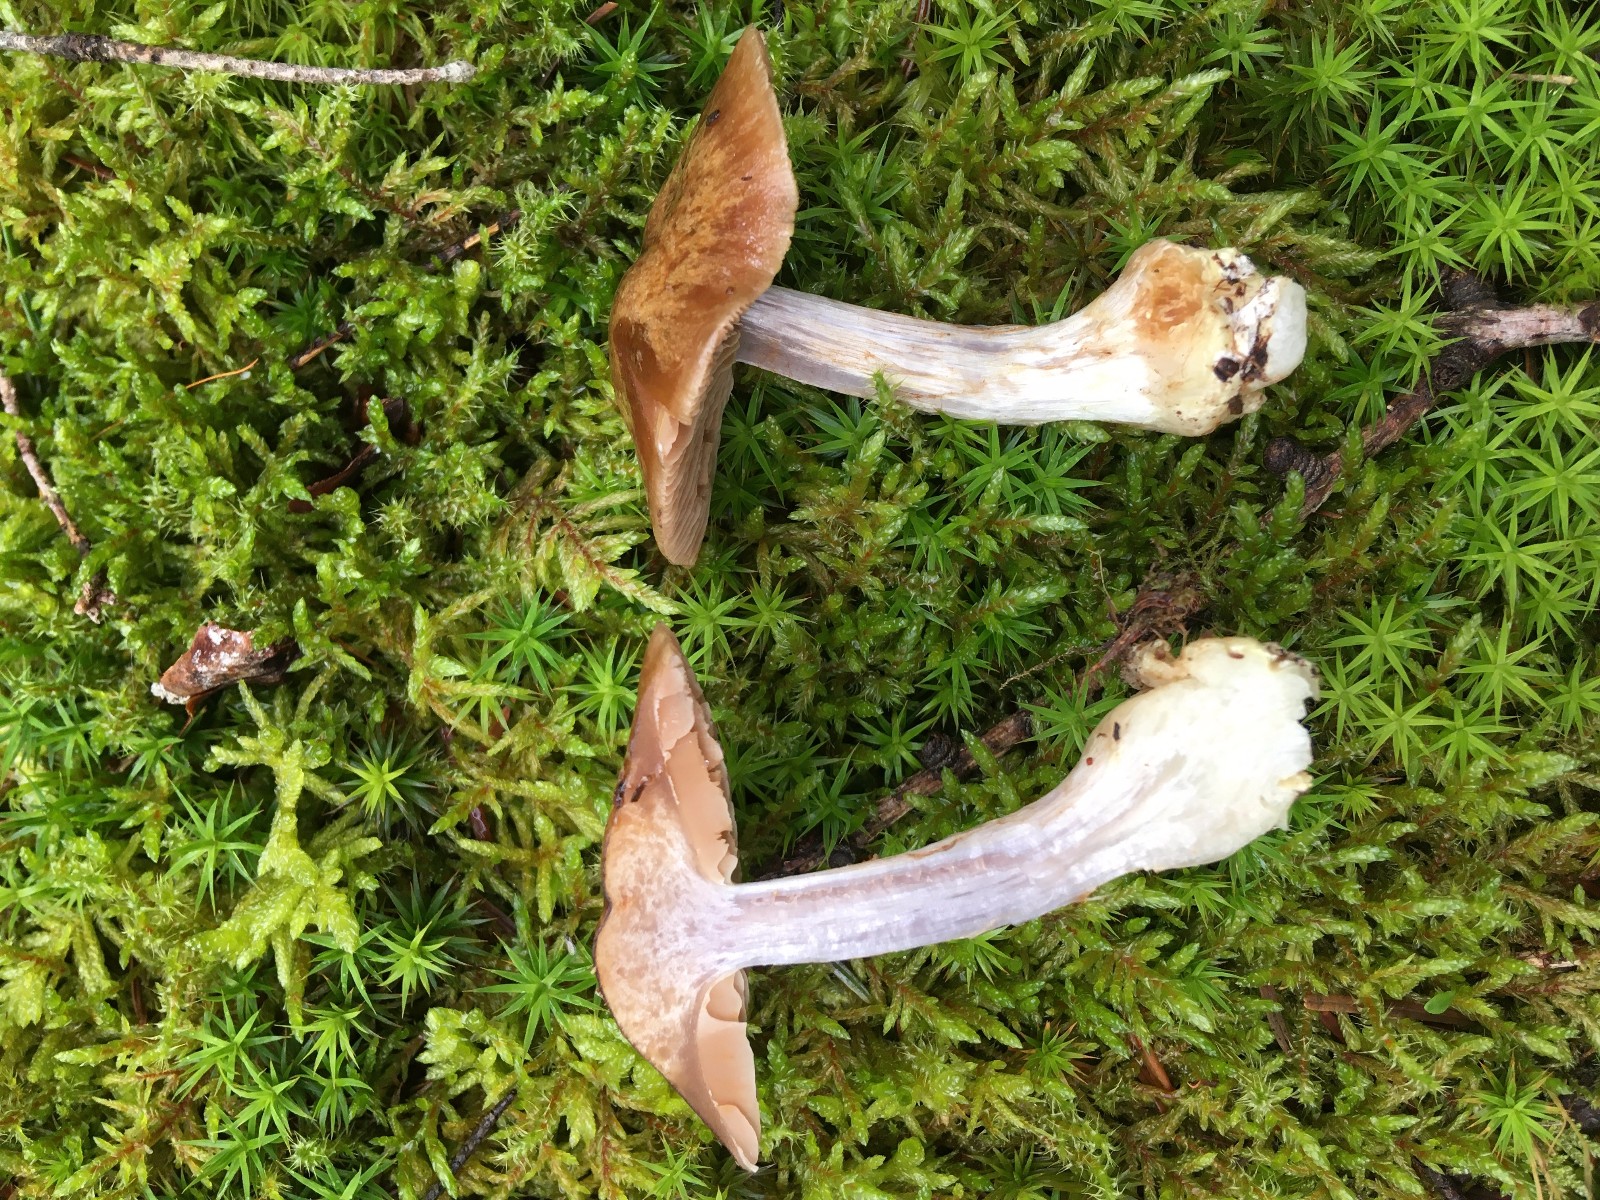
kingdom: Fungi
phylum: Basidiomycota
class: Agaricomycetes
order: Agaricales
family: Cortinariaceae
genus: Thaxterogaster
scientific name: Thaxterogaster sphagnophilus
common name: vandplettet slørhat
